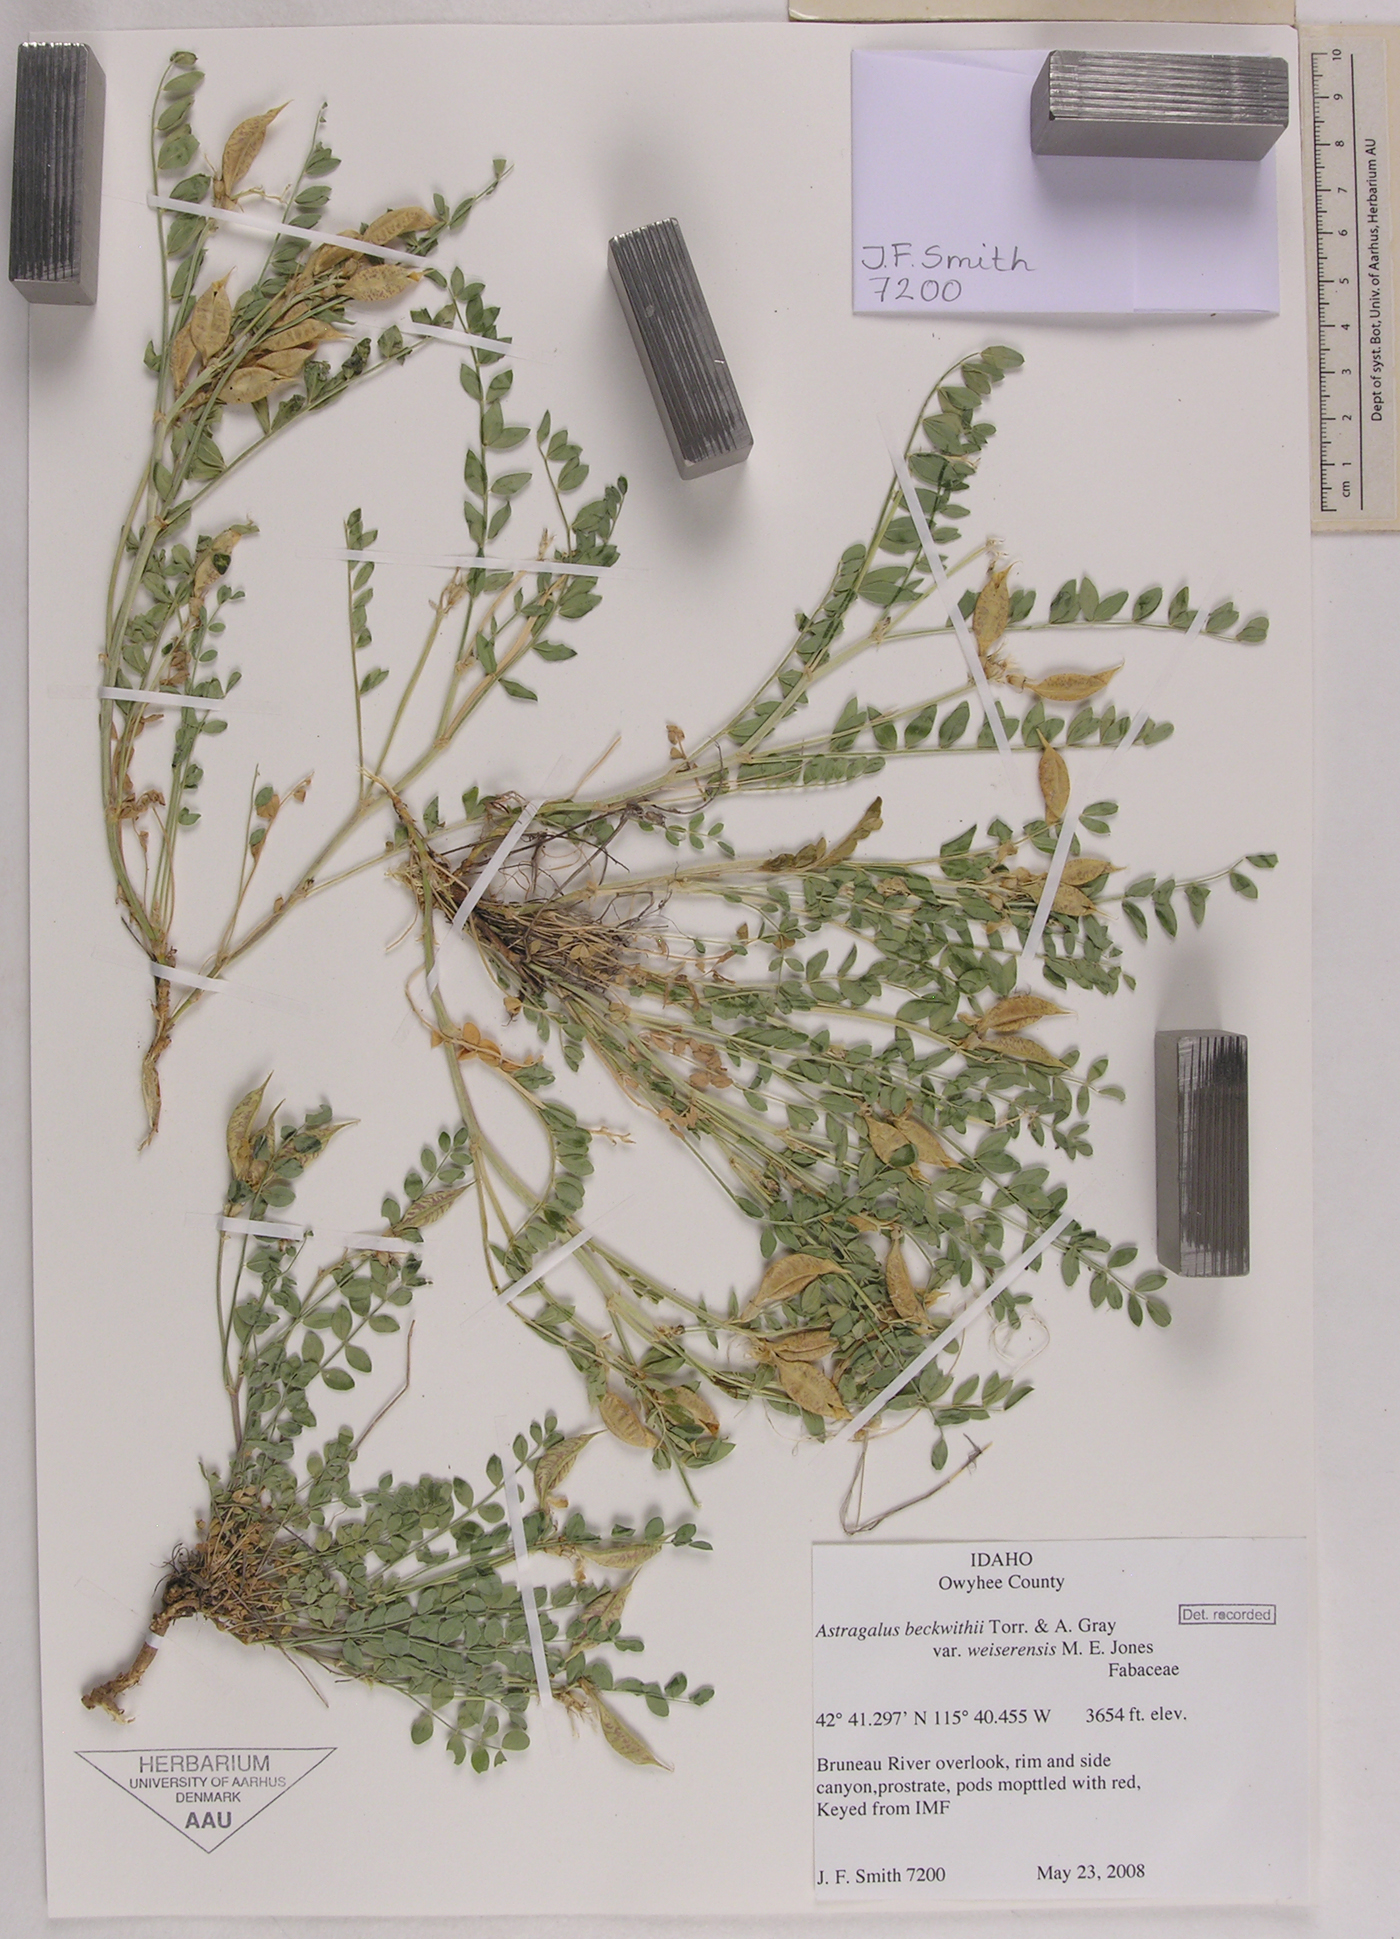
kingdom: Plantae
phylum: Tracheophyta
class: Magnoliopsida
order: Fabales
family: Fabaceae
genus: Astragalus
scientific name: Astragalus beckwithii
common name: Beckwith's milk-vetch
